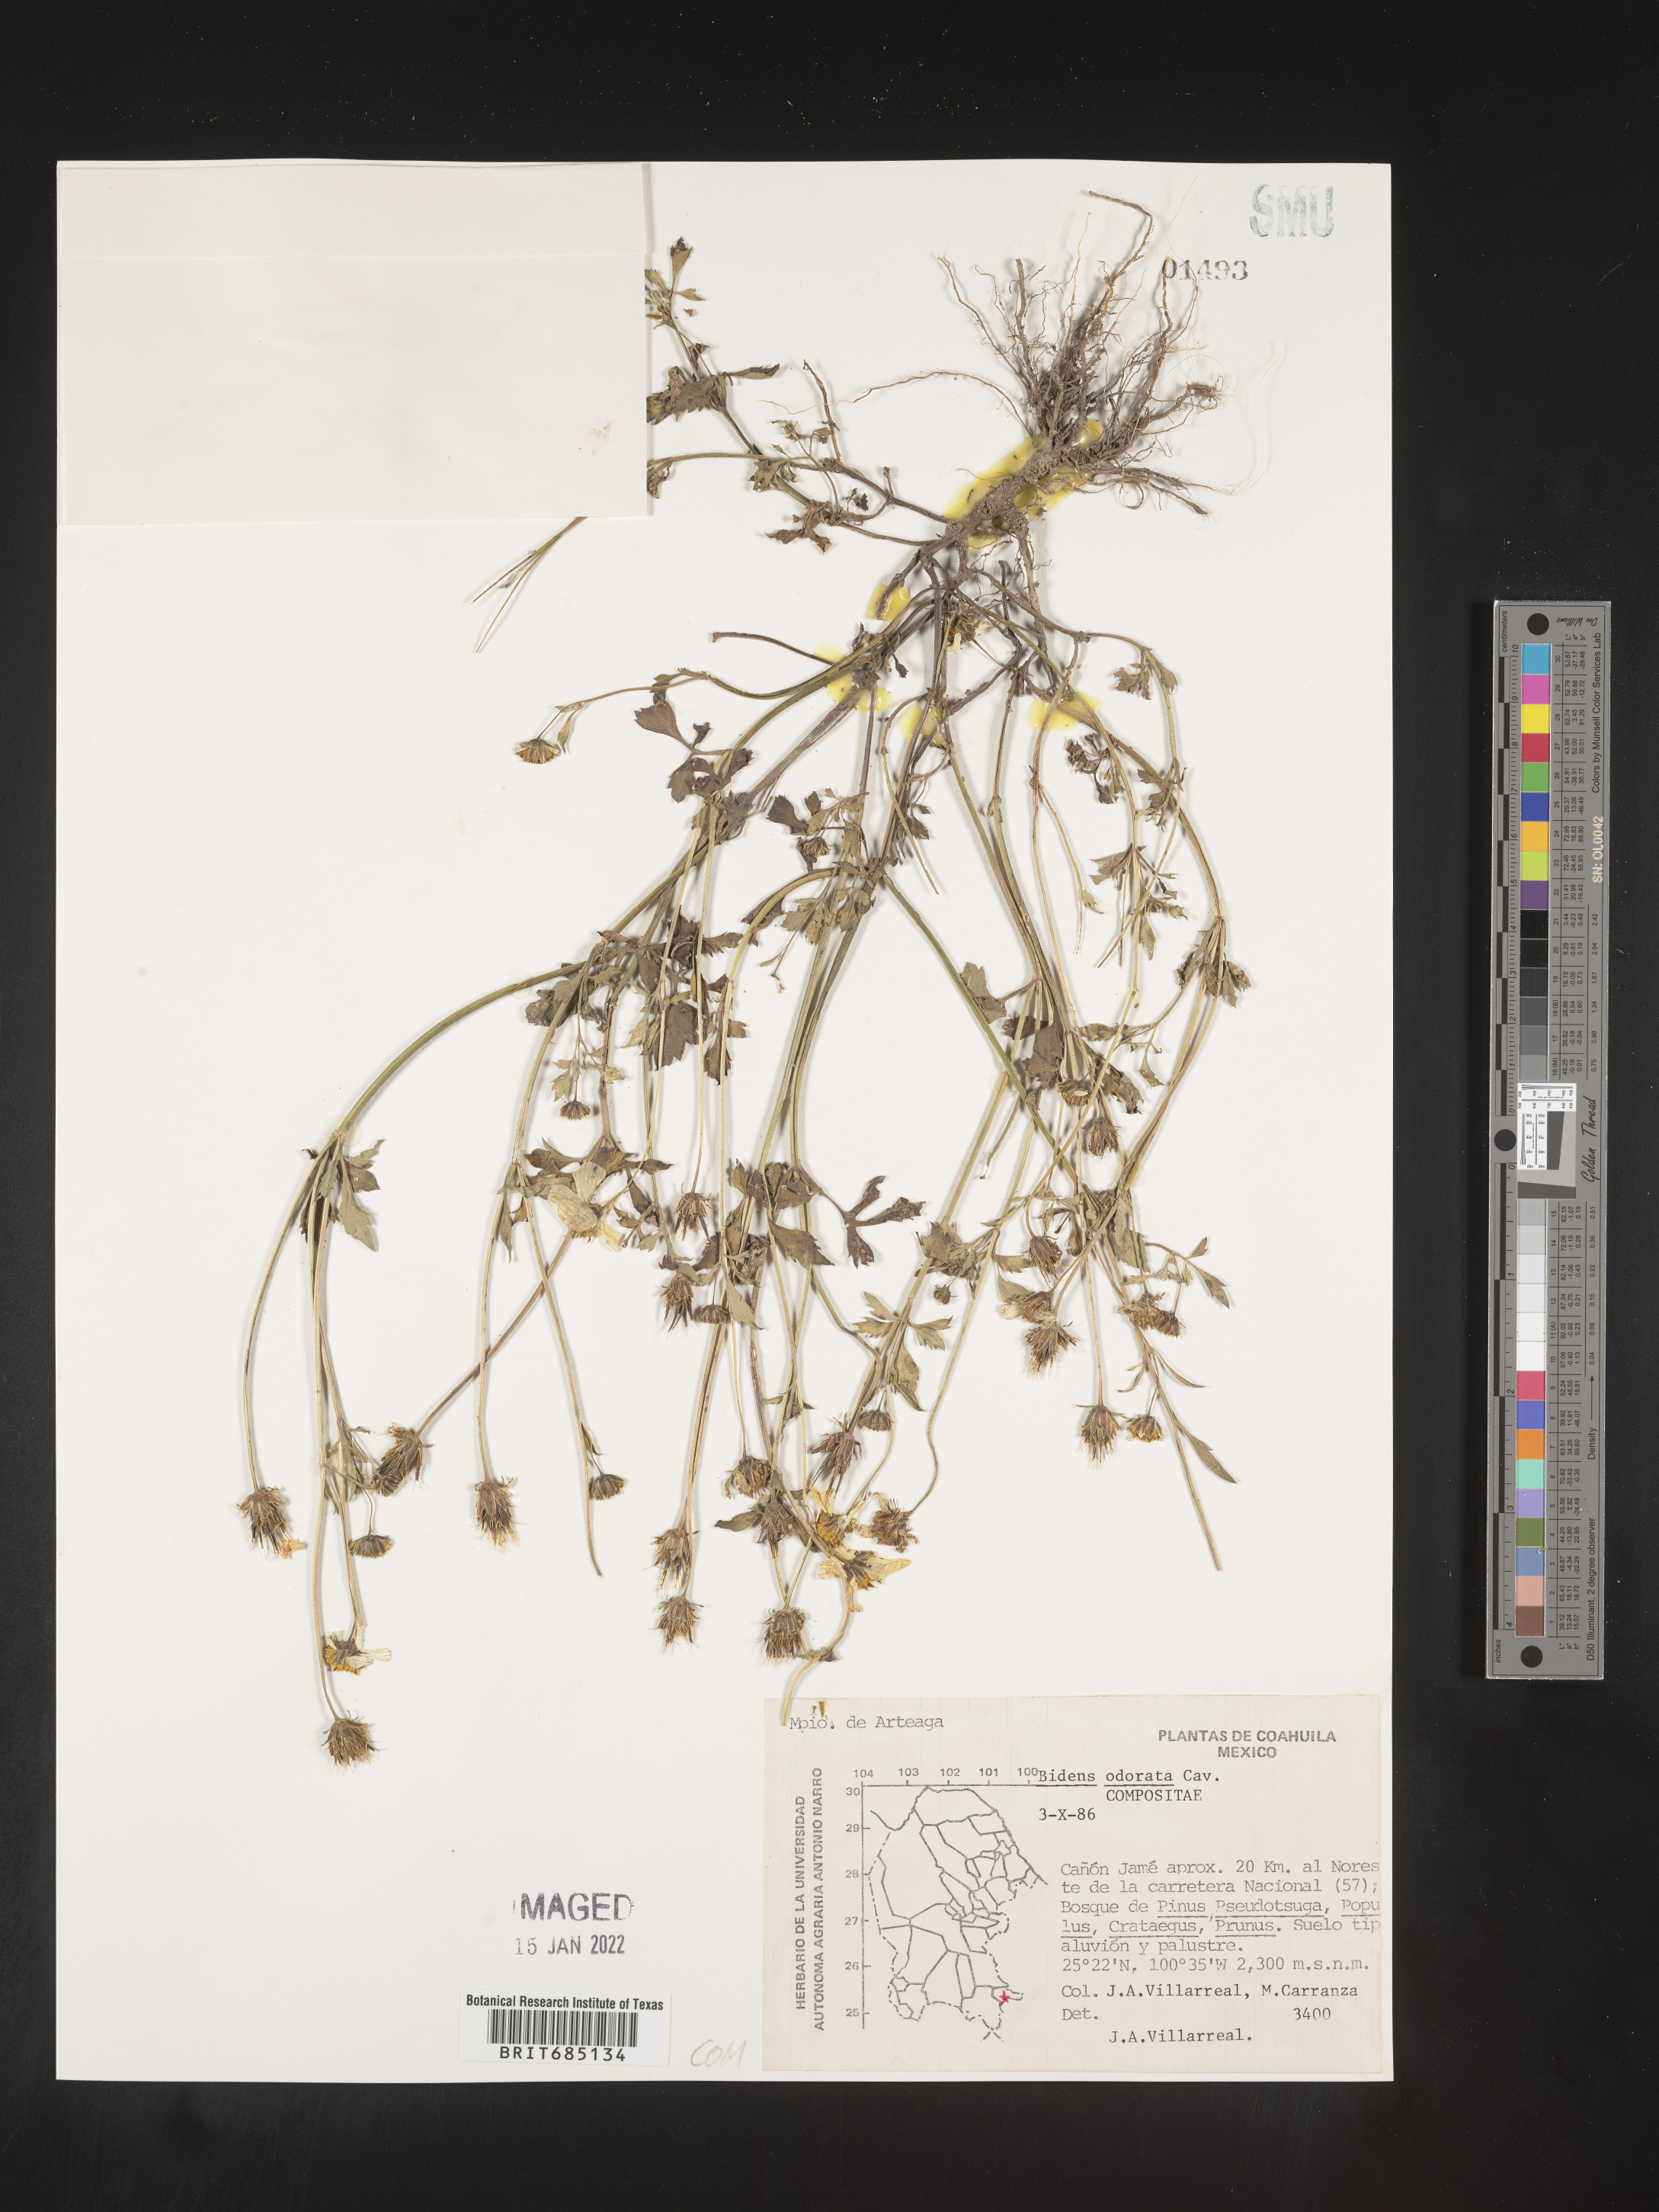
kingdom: Plantae
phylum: Tracheophyta
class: Magnoliopsida
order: Asterales
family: Asteraceae
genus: Bidens
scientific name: Bidens
